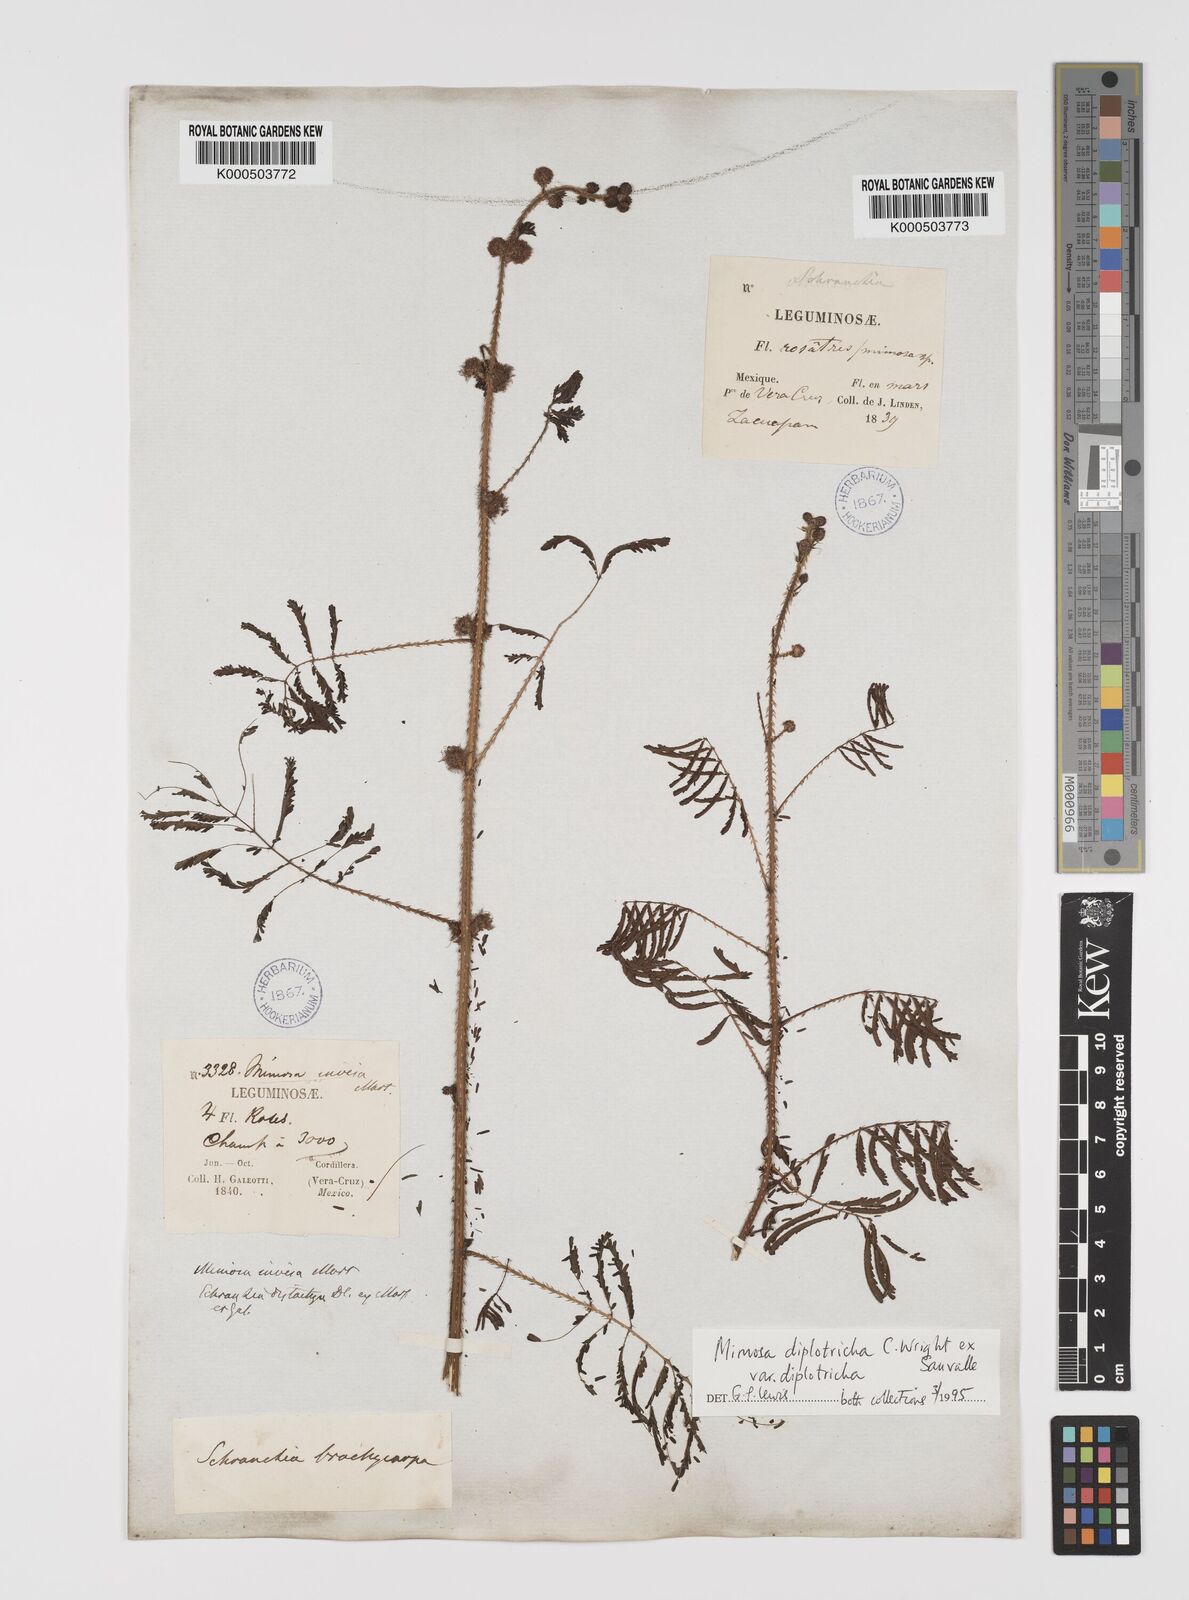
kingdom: Plantae
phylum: Tracheophyta
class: Magnoliopsida
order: Fabales
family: Fabaceae
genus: Mimosa
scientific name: Mimosa diplotricha
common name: Giant sensitive-plant
